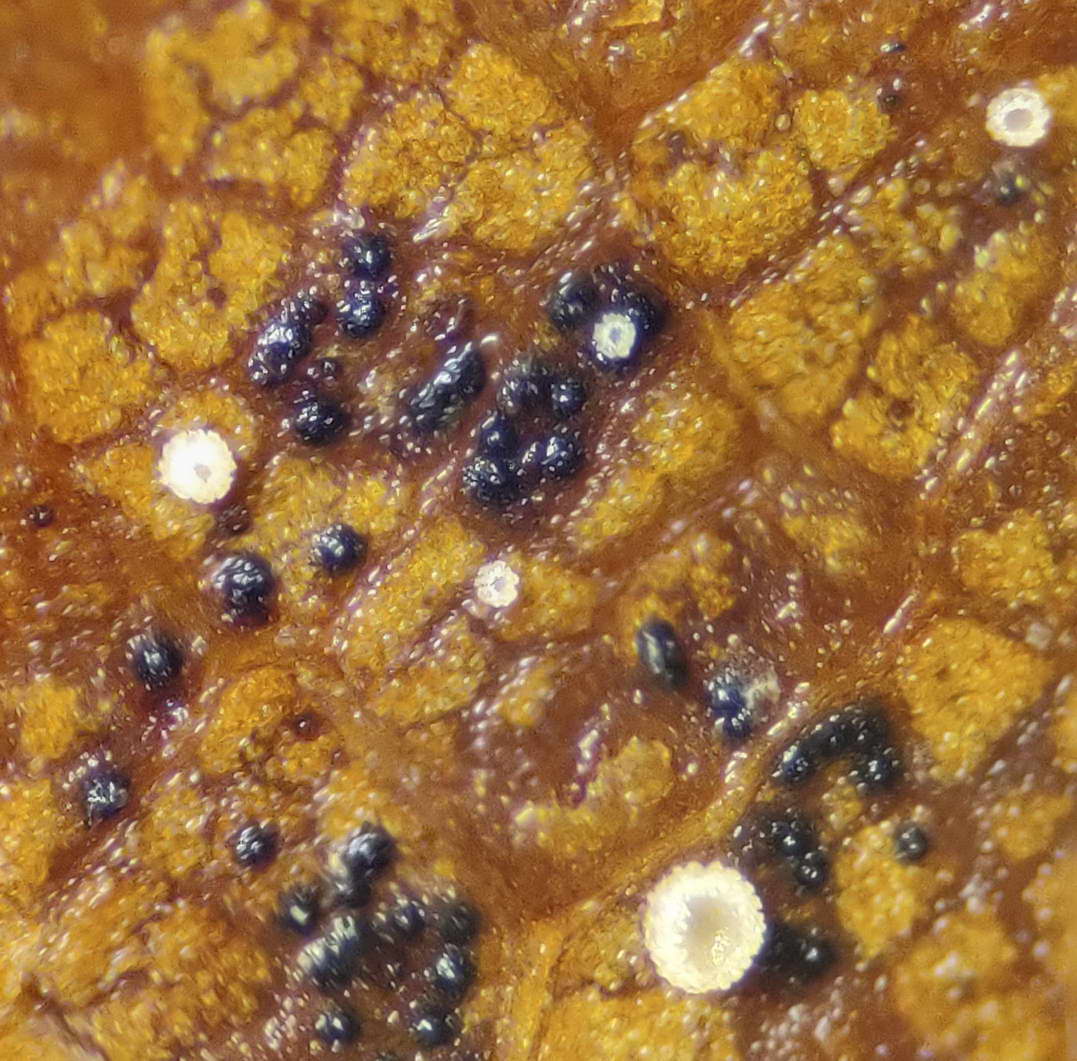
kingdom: Fungi
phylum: Ascomycota
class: Leotiomycetes
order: Helotiales
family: Lachnaceae
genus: Lachnum
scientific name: Lachnum rhytismatis
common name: blad-frynseskive
